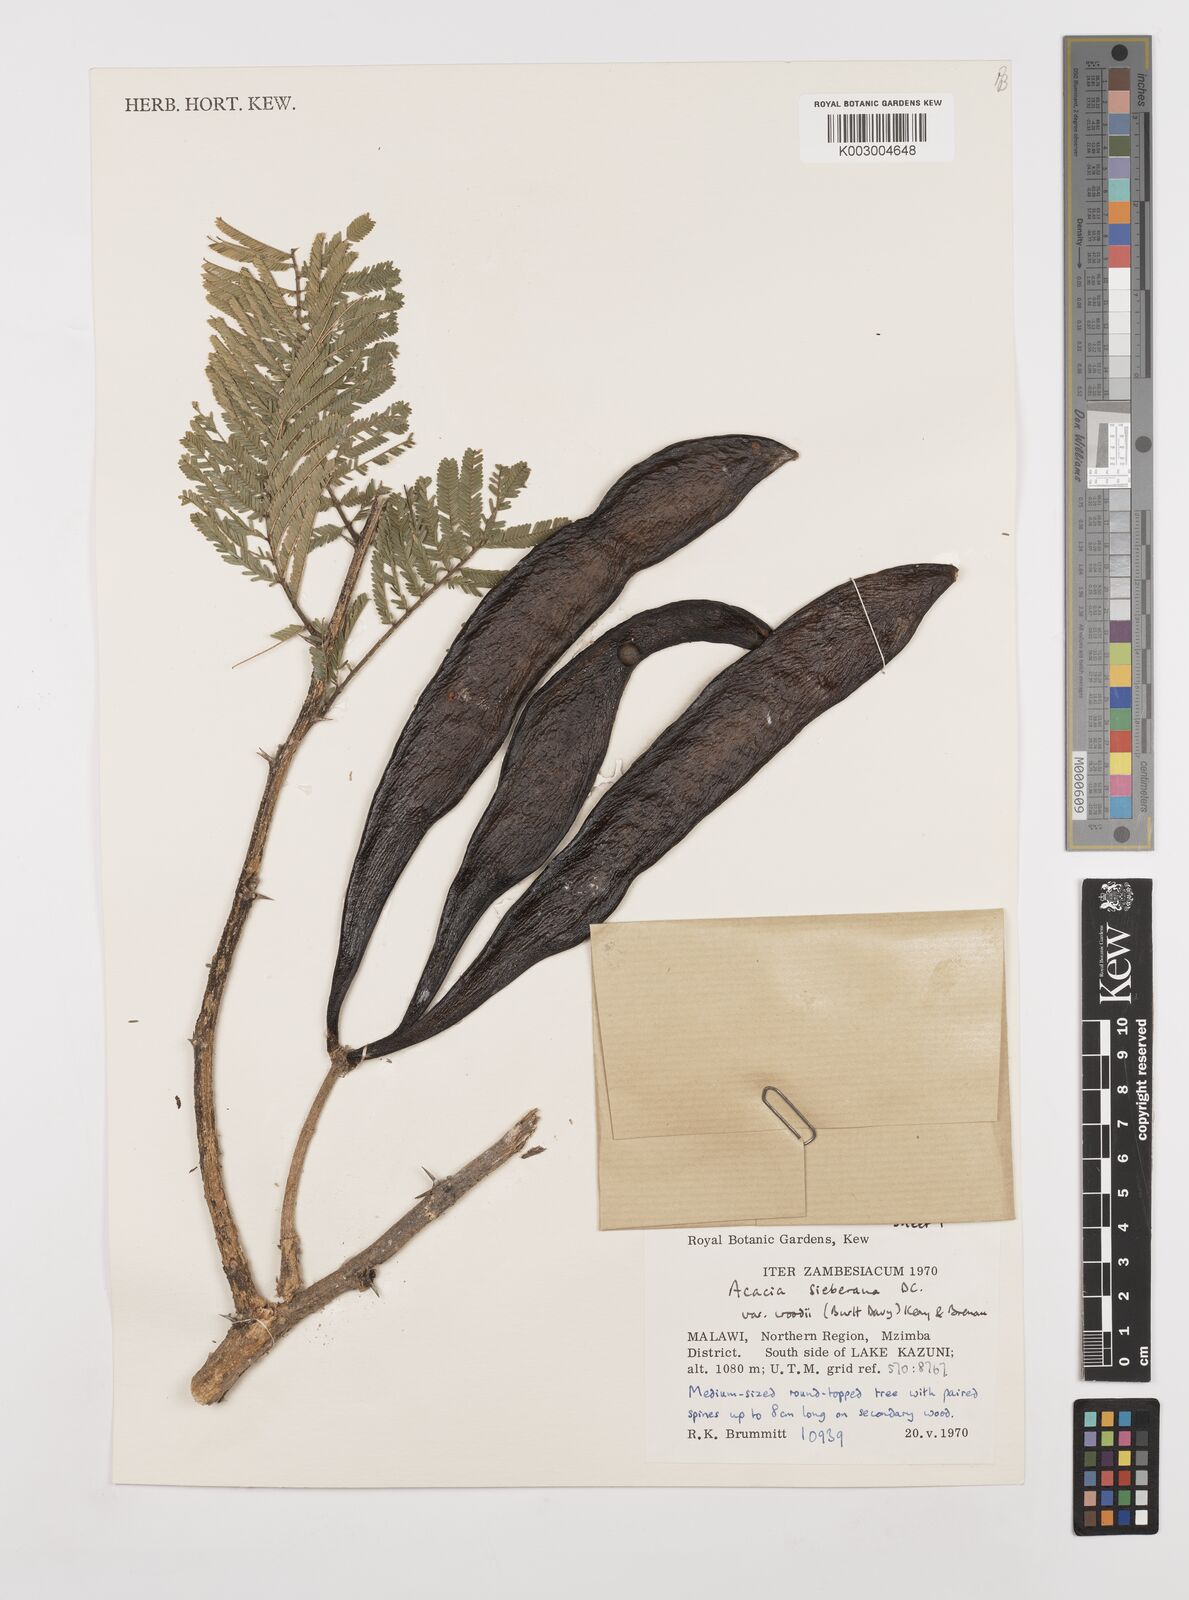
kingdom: Plantae
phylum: Tracheophyta
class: Magnoliopsida
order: Fabales
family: Fabaceae
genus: Vachellia
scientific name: Vachellia sieberiana
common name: Flat-topped thorn
